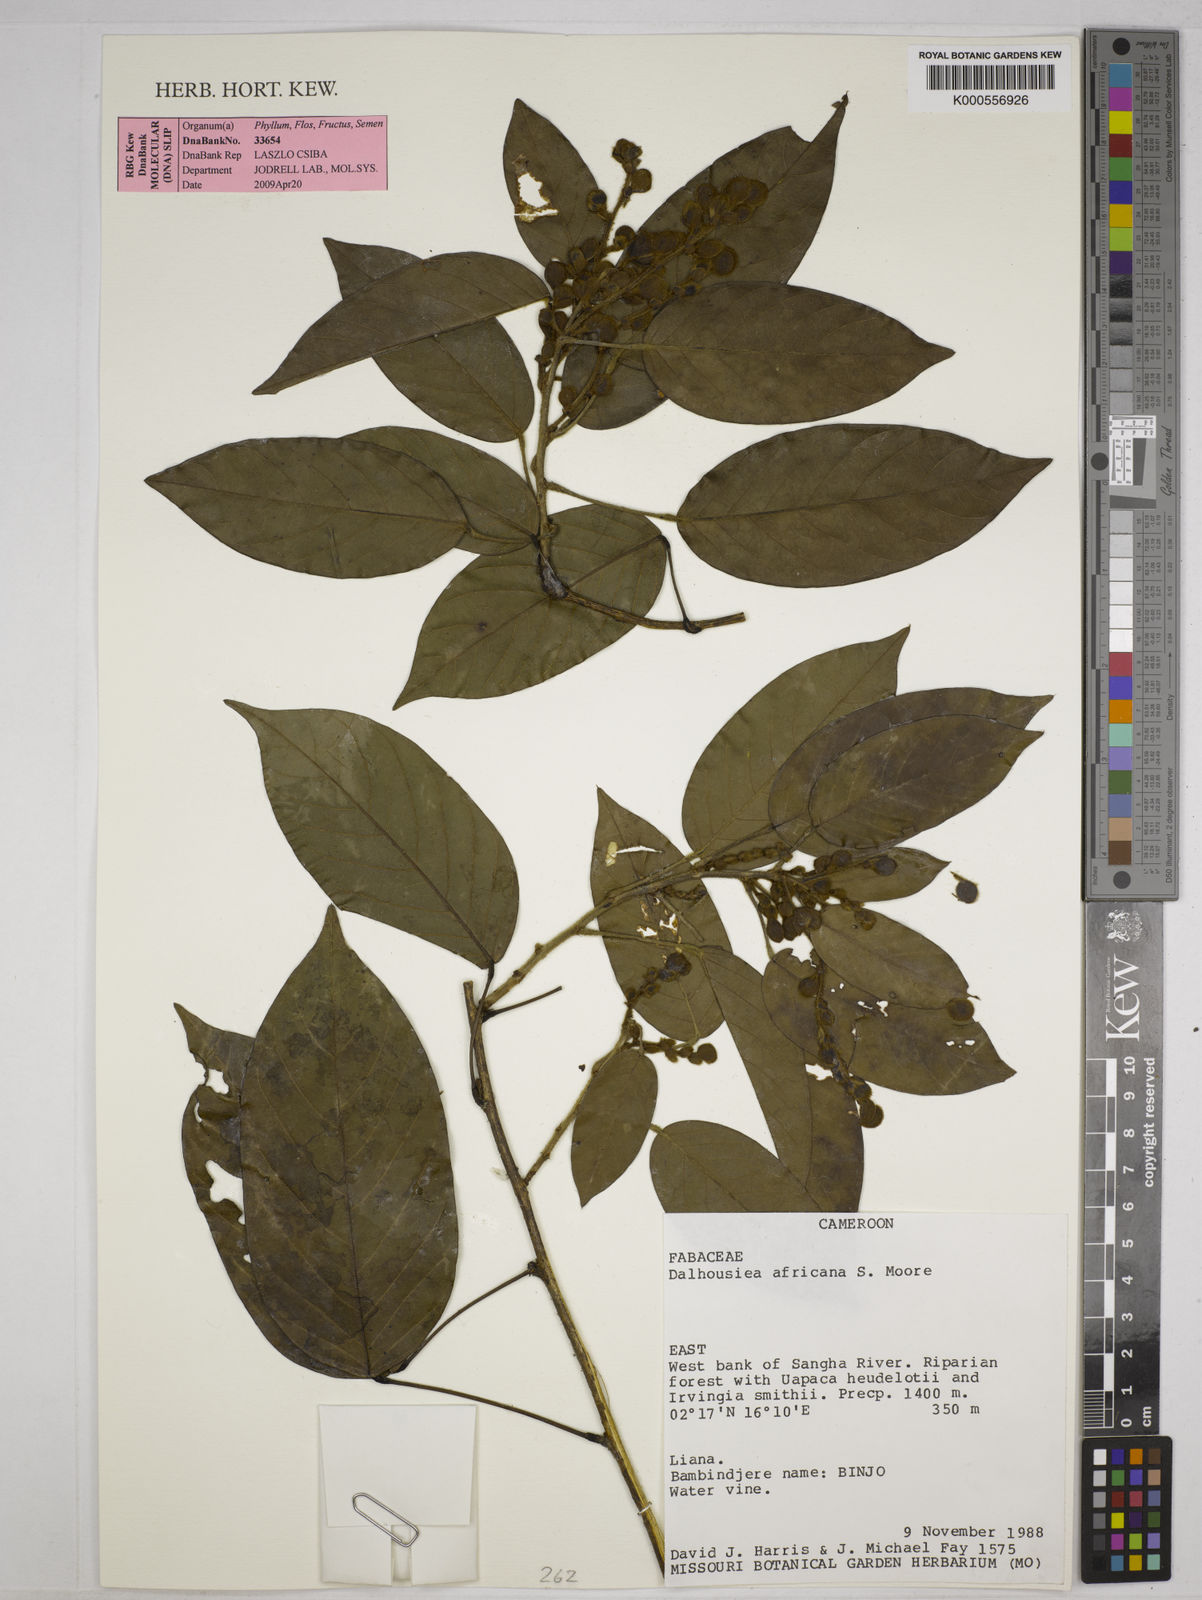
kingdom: Plantae
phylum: Tracheophyta
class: Magnoliopsida
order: Fabales
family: Fabaceae
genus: Dalhousiea
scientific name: Dalhousiea africana
